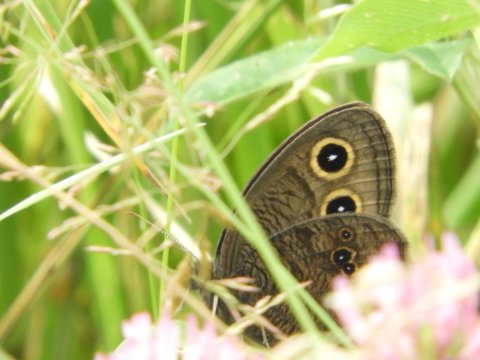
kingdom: Animalia
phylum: Arthropoda
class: Insecta
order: Lepidoptera
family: Nymphalidae
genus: Cercyonis
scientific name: Cercyonis pegala
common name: Common Wood-Nymph
